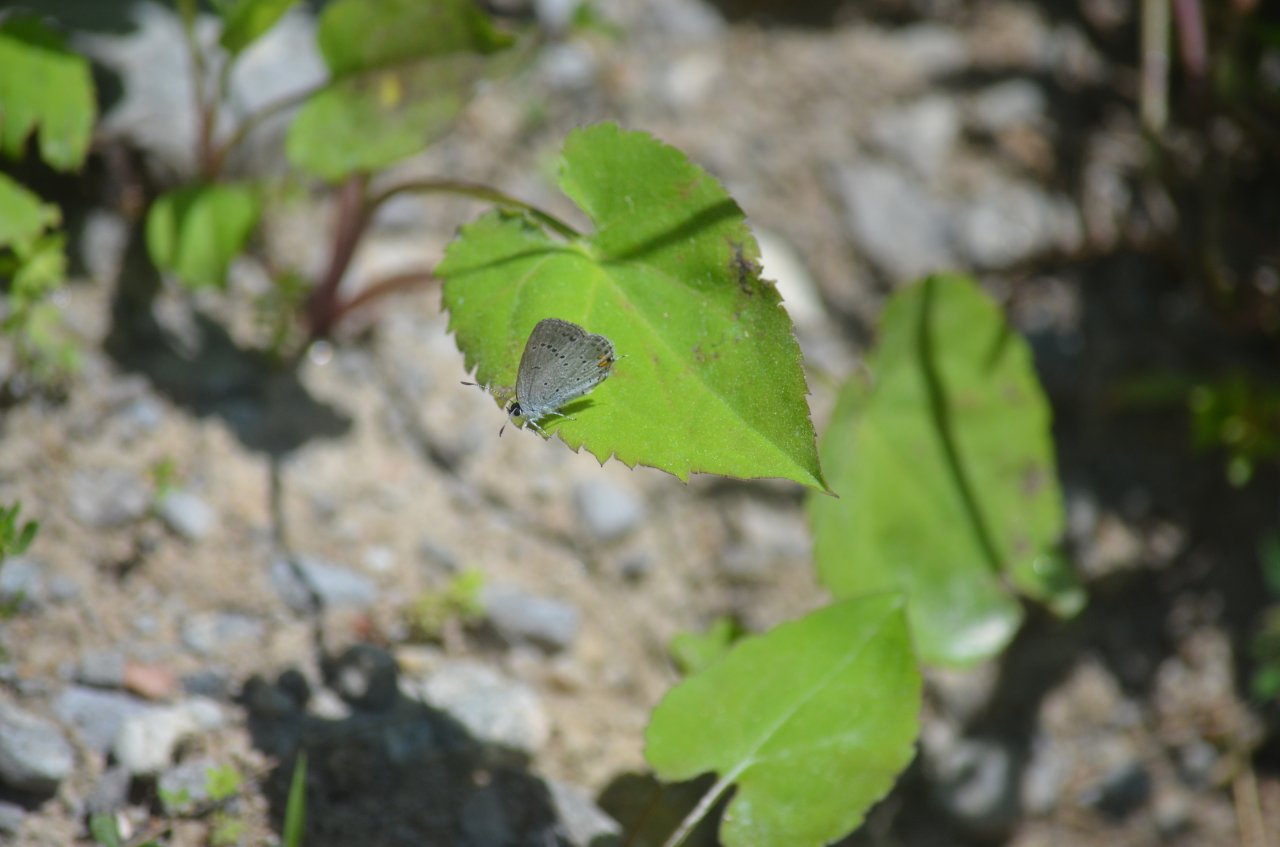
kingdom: Animalia
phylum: Arthropoda
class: Insecta
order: Lepidoptera
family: Lycaenidae
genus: Elkalyce
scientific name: Elkalyce comyntas
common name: Eastern Tailed-Blue
